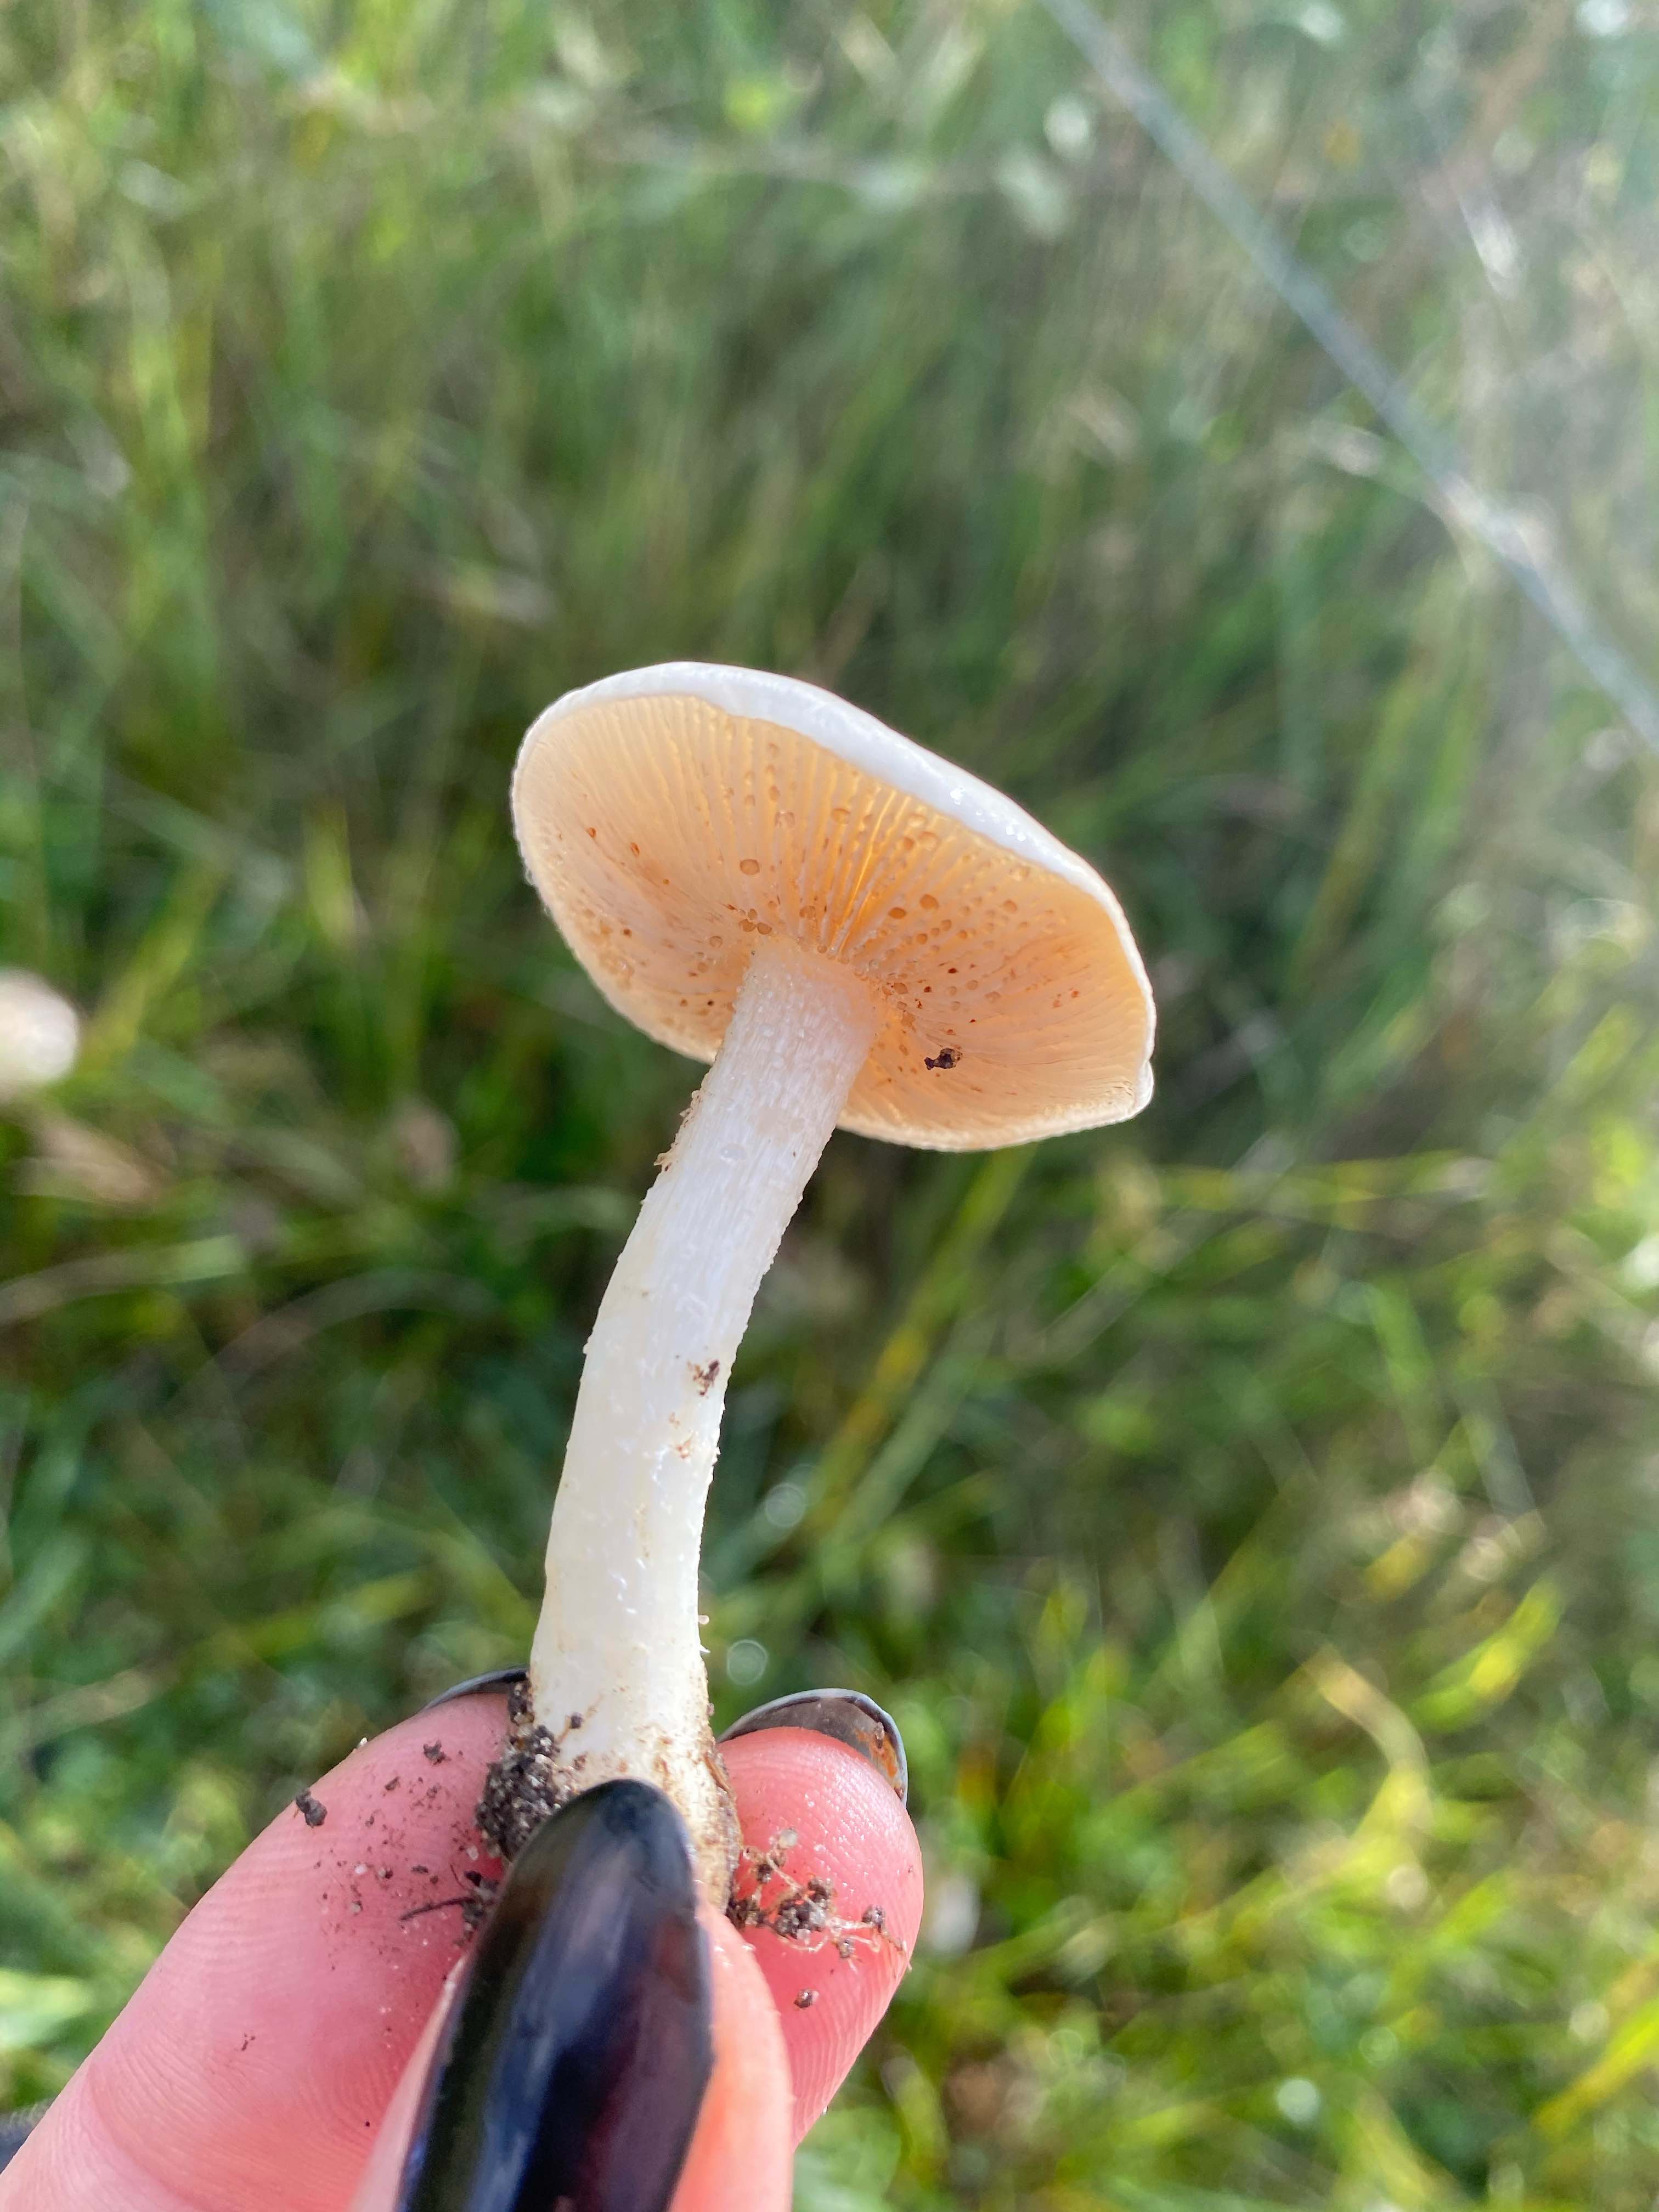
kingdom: Fungi
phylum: Basidiomycota
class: Agaricomycetes
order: Agaricales
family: Hymenogastraceae
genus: Hebeloma
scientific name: Hebeloma
